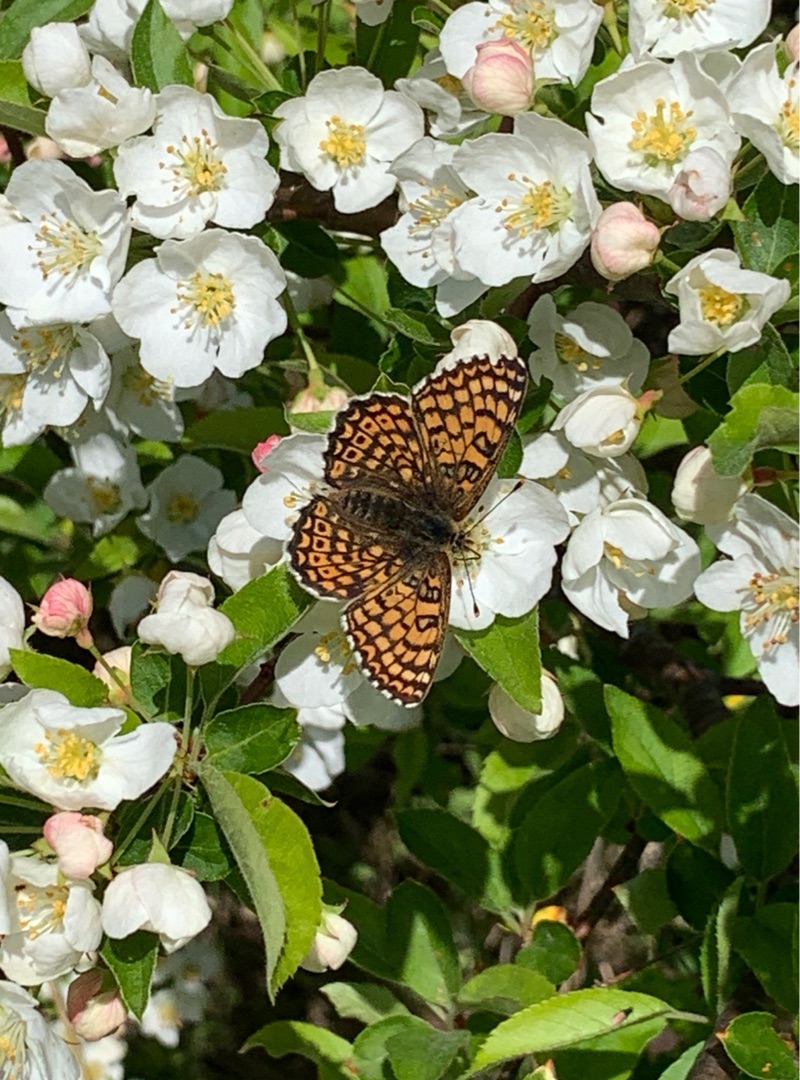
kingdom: Animalia
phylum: Arthropoda
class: Insecta
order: Lepidoptera
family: Nymphalidae
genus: Melitaea
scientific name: Melitaea cinxia
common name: Okkergul pletvinge
